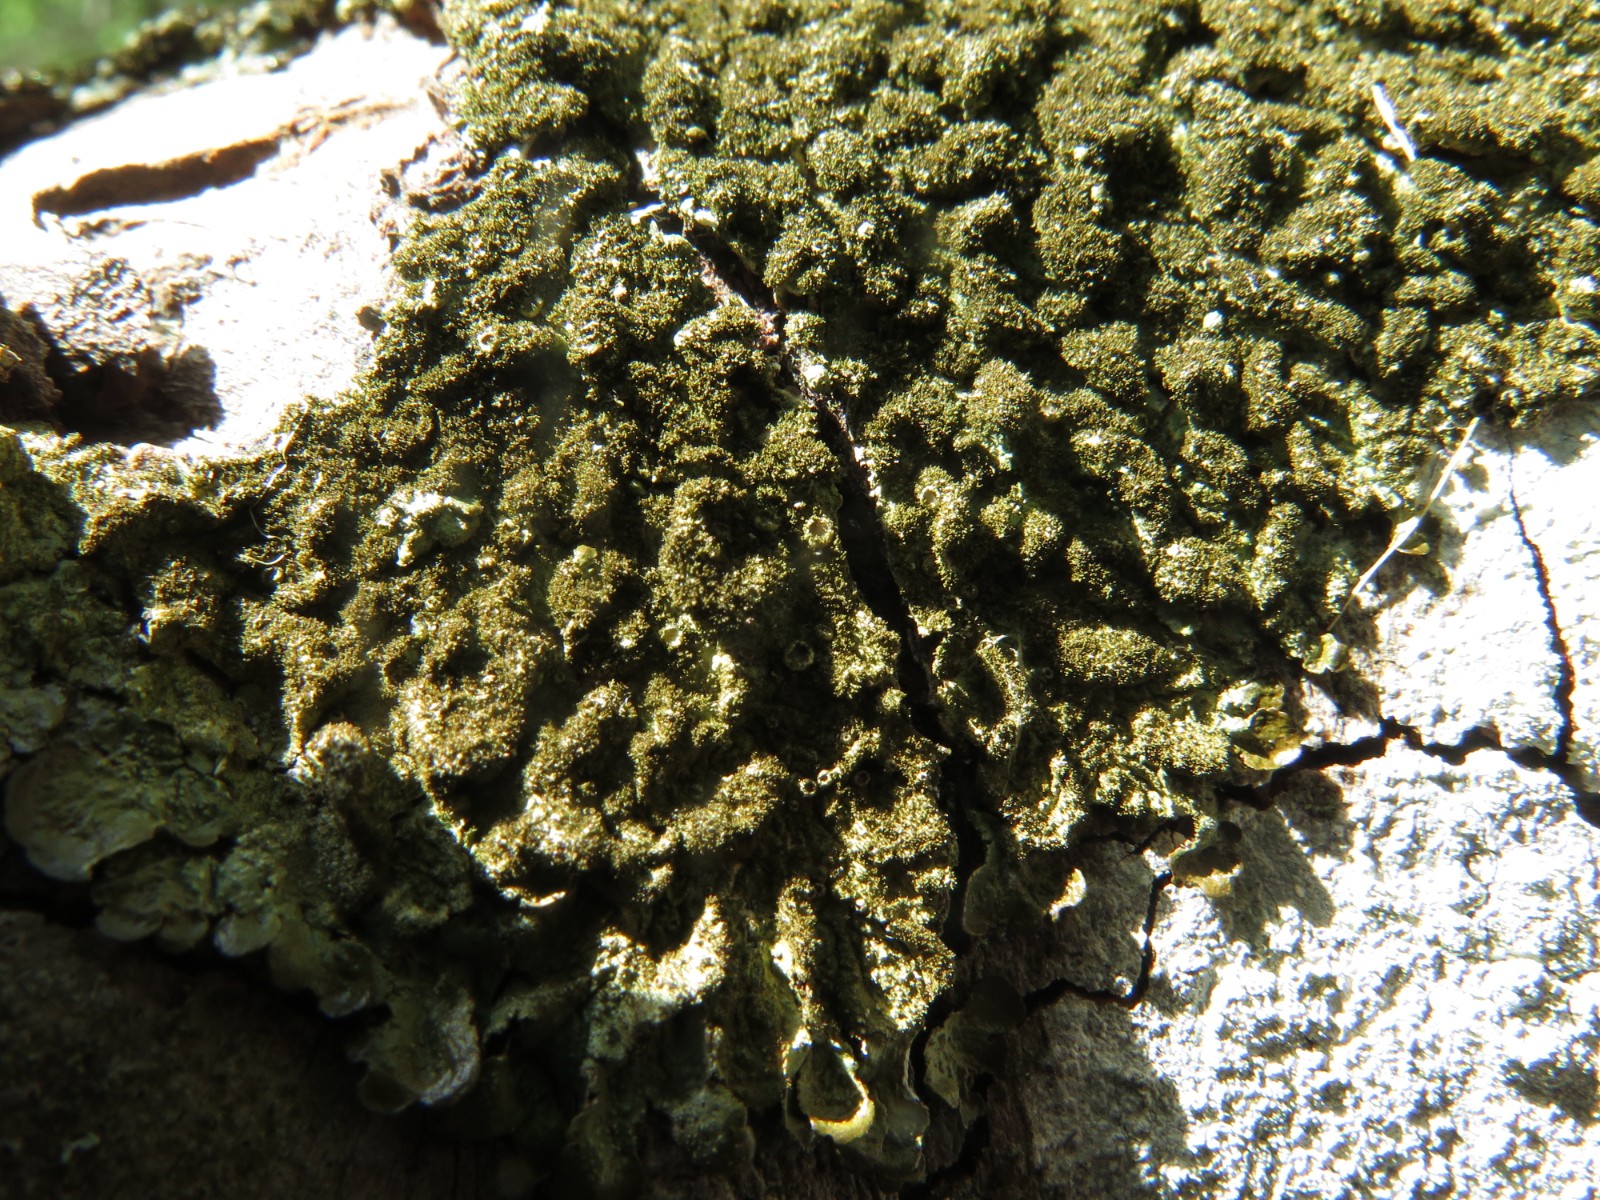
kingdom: Fungi
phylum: Ascomycota
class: Lecanoromycetes
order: Lecanorales
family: Parmeliaceae
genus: Melanohalea
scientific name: Melanohalea exasperatula
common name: kølle-skållav
